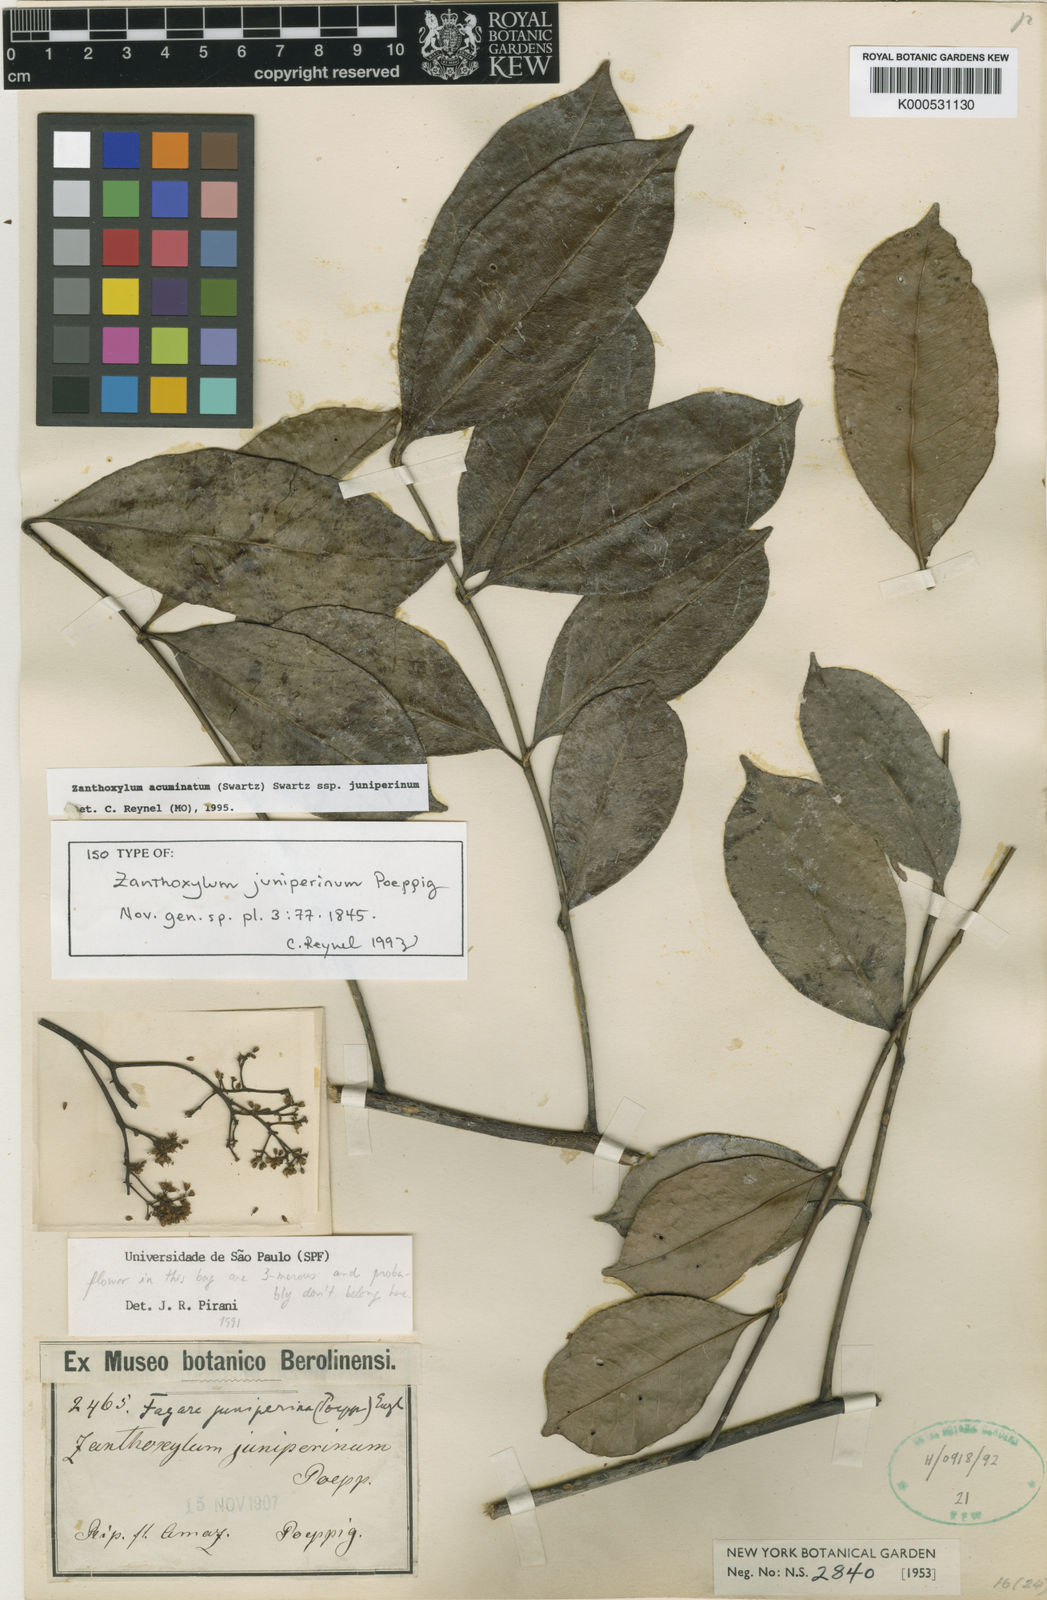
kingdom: Plantae
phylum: Tracheophyta
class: Magnoliopsida
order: Sapindales
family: Rutaceae
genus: Zanthoxylum
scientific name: Zanthoxylum acuminatum
